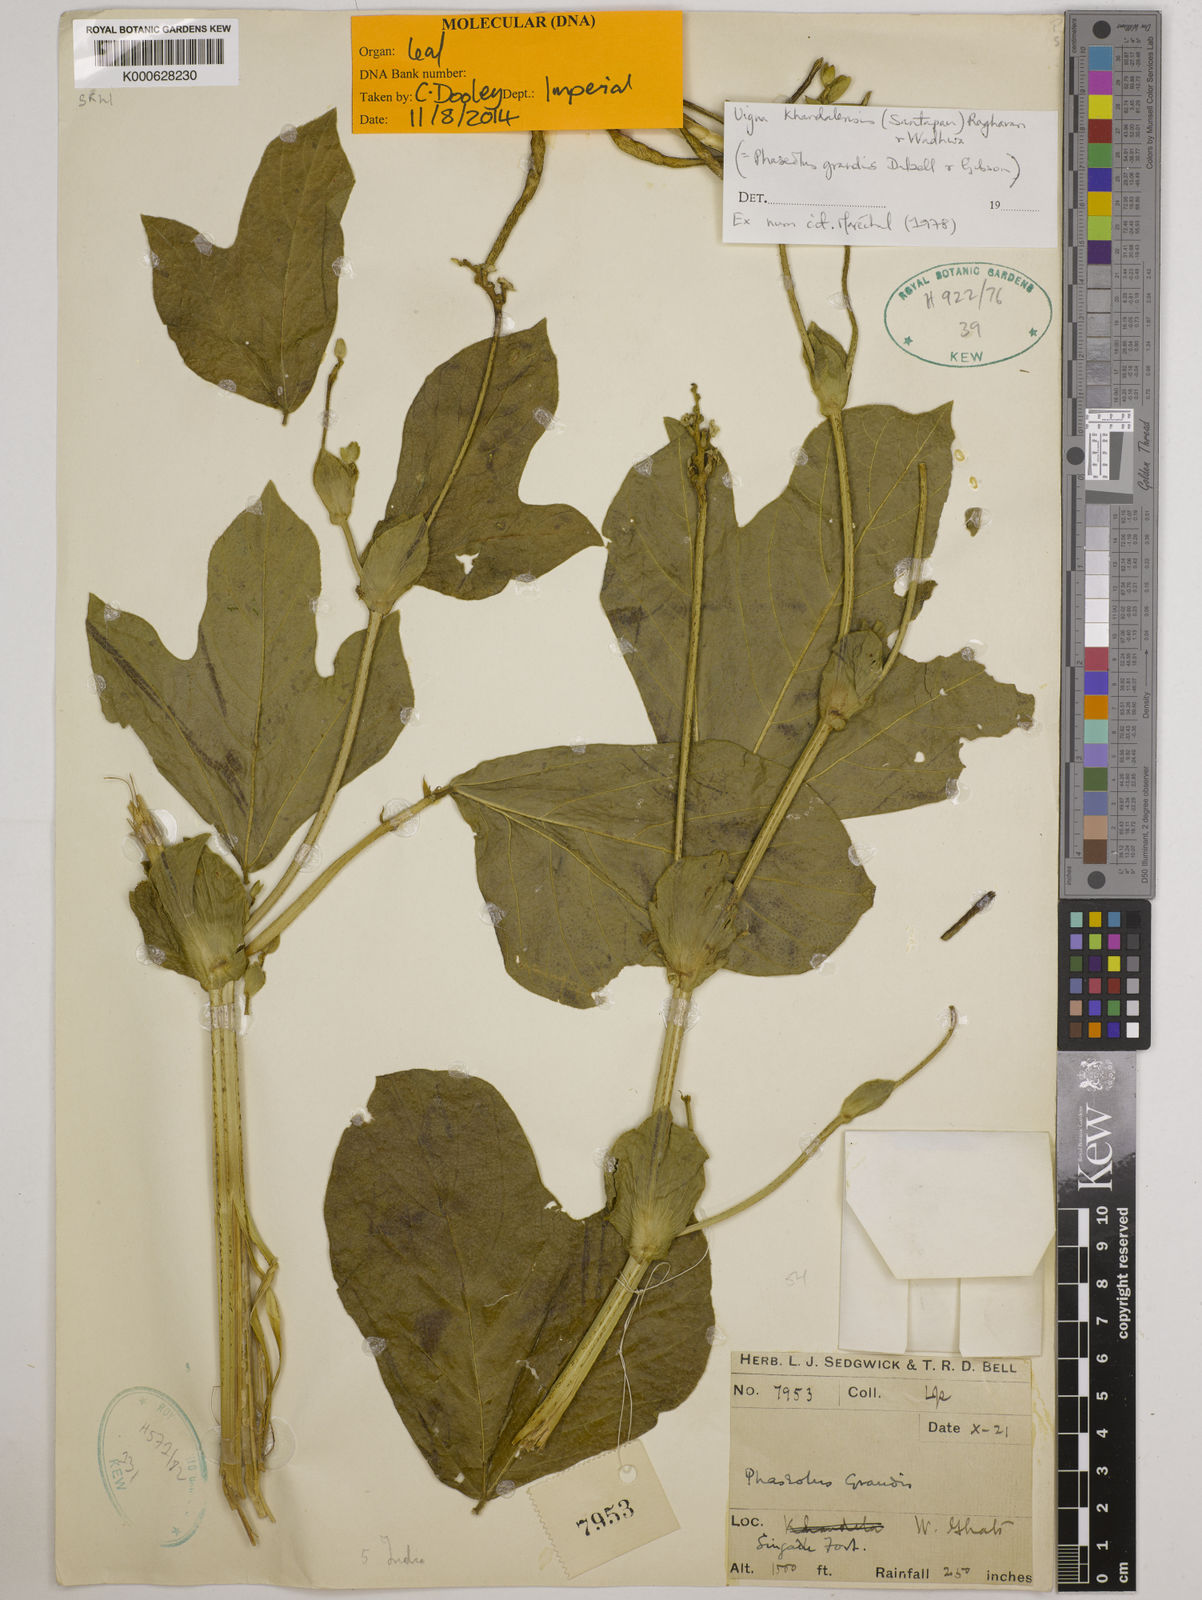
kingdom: Plantae
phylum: Tracheophyta
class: Magnoliopsida
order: Fabales
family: Fabaceae
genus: Vigna
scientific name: Vigna khandalensis
